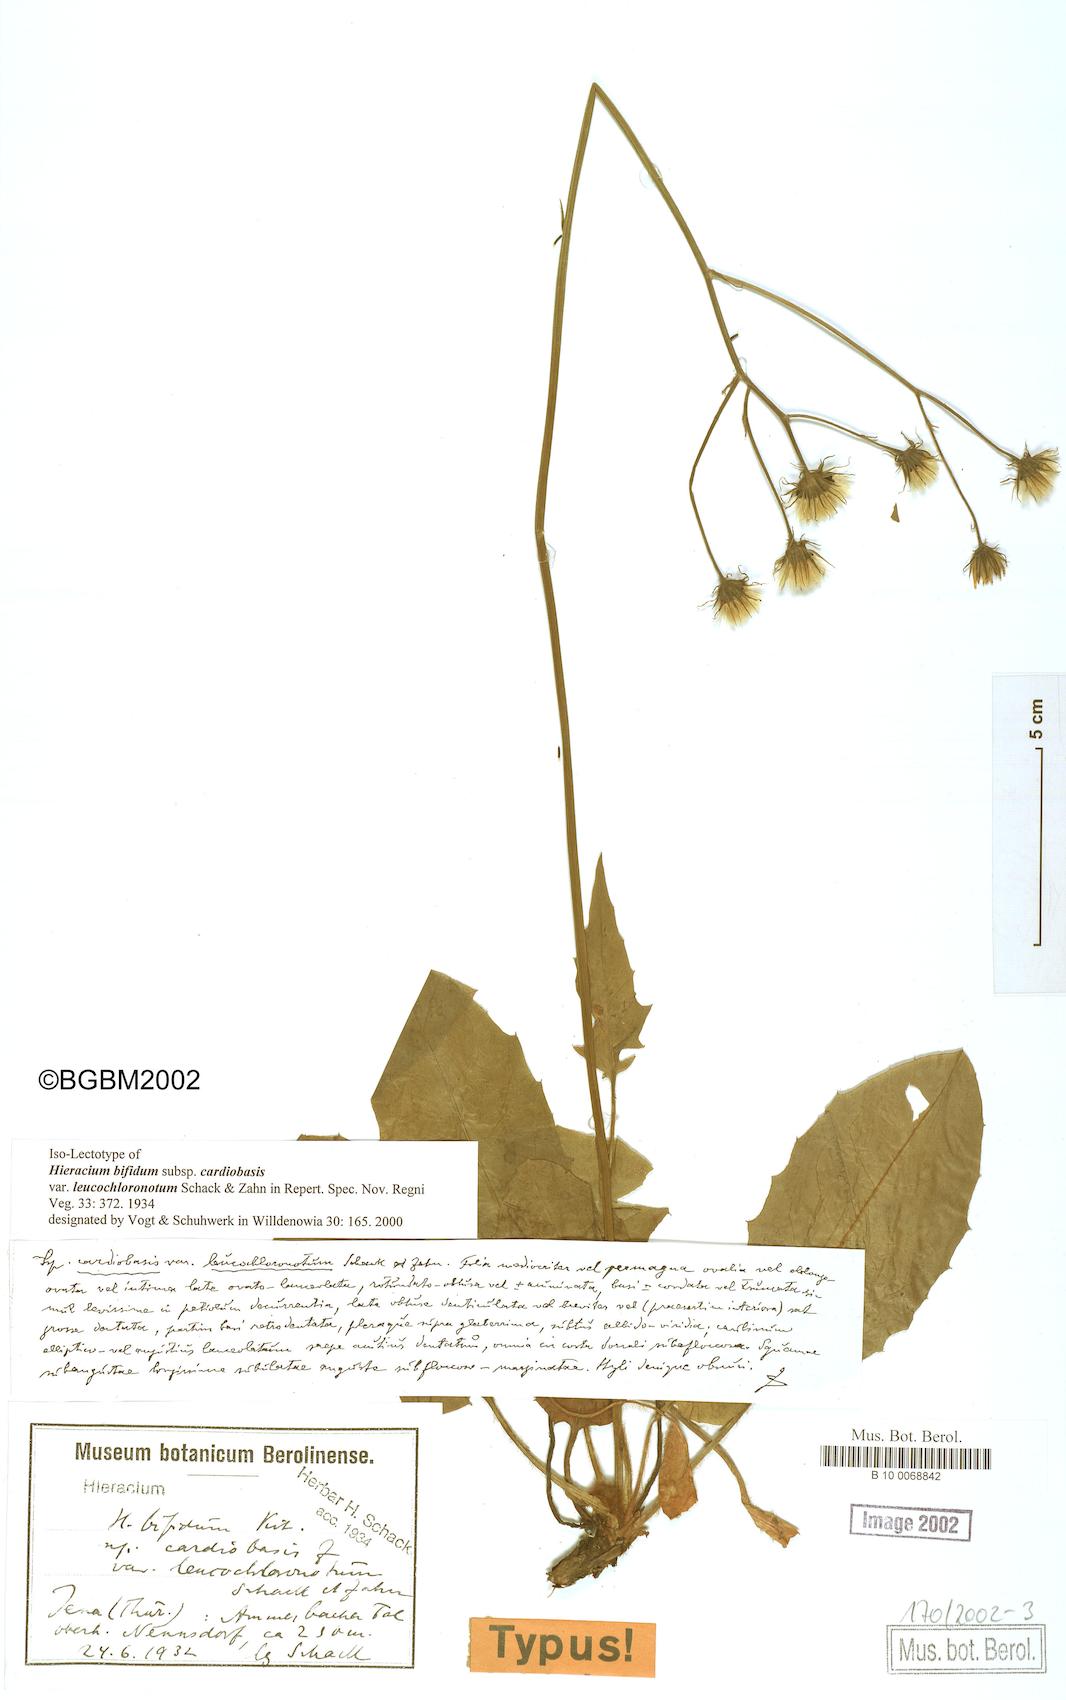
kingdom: Plantae
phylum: Tracheophyta
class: Magnoliopsida
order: Asterales
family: Asteraceae
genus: Hieracium
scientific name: Hieracium bifidum
